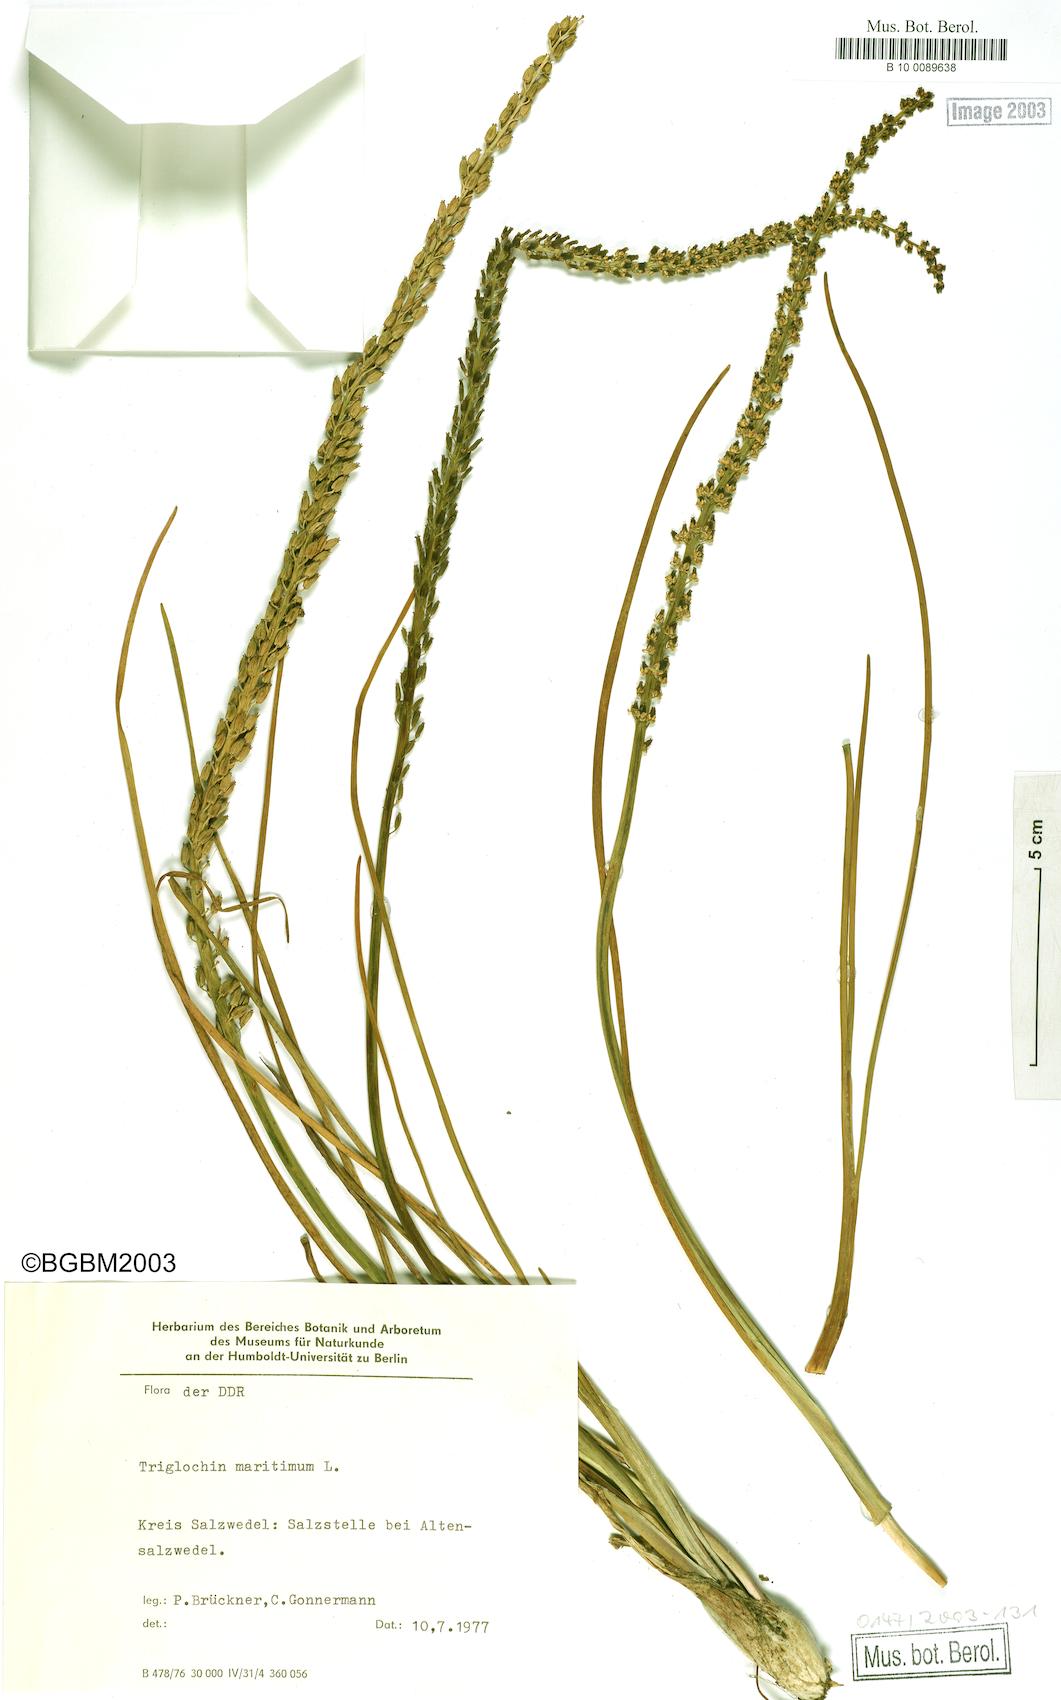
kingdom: Plantae
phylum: Tracheophyta
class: Liliopsida
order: Alismatales
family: Juncaginaceae
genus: Triglochin
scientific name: Triglochin maritima
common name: Sea arrowgrass
